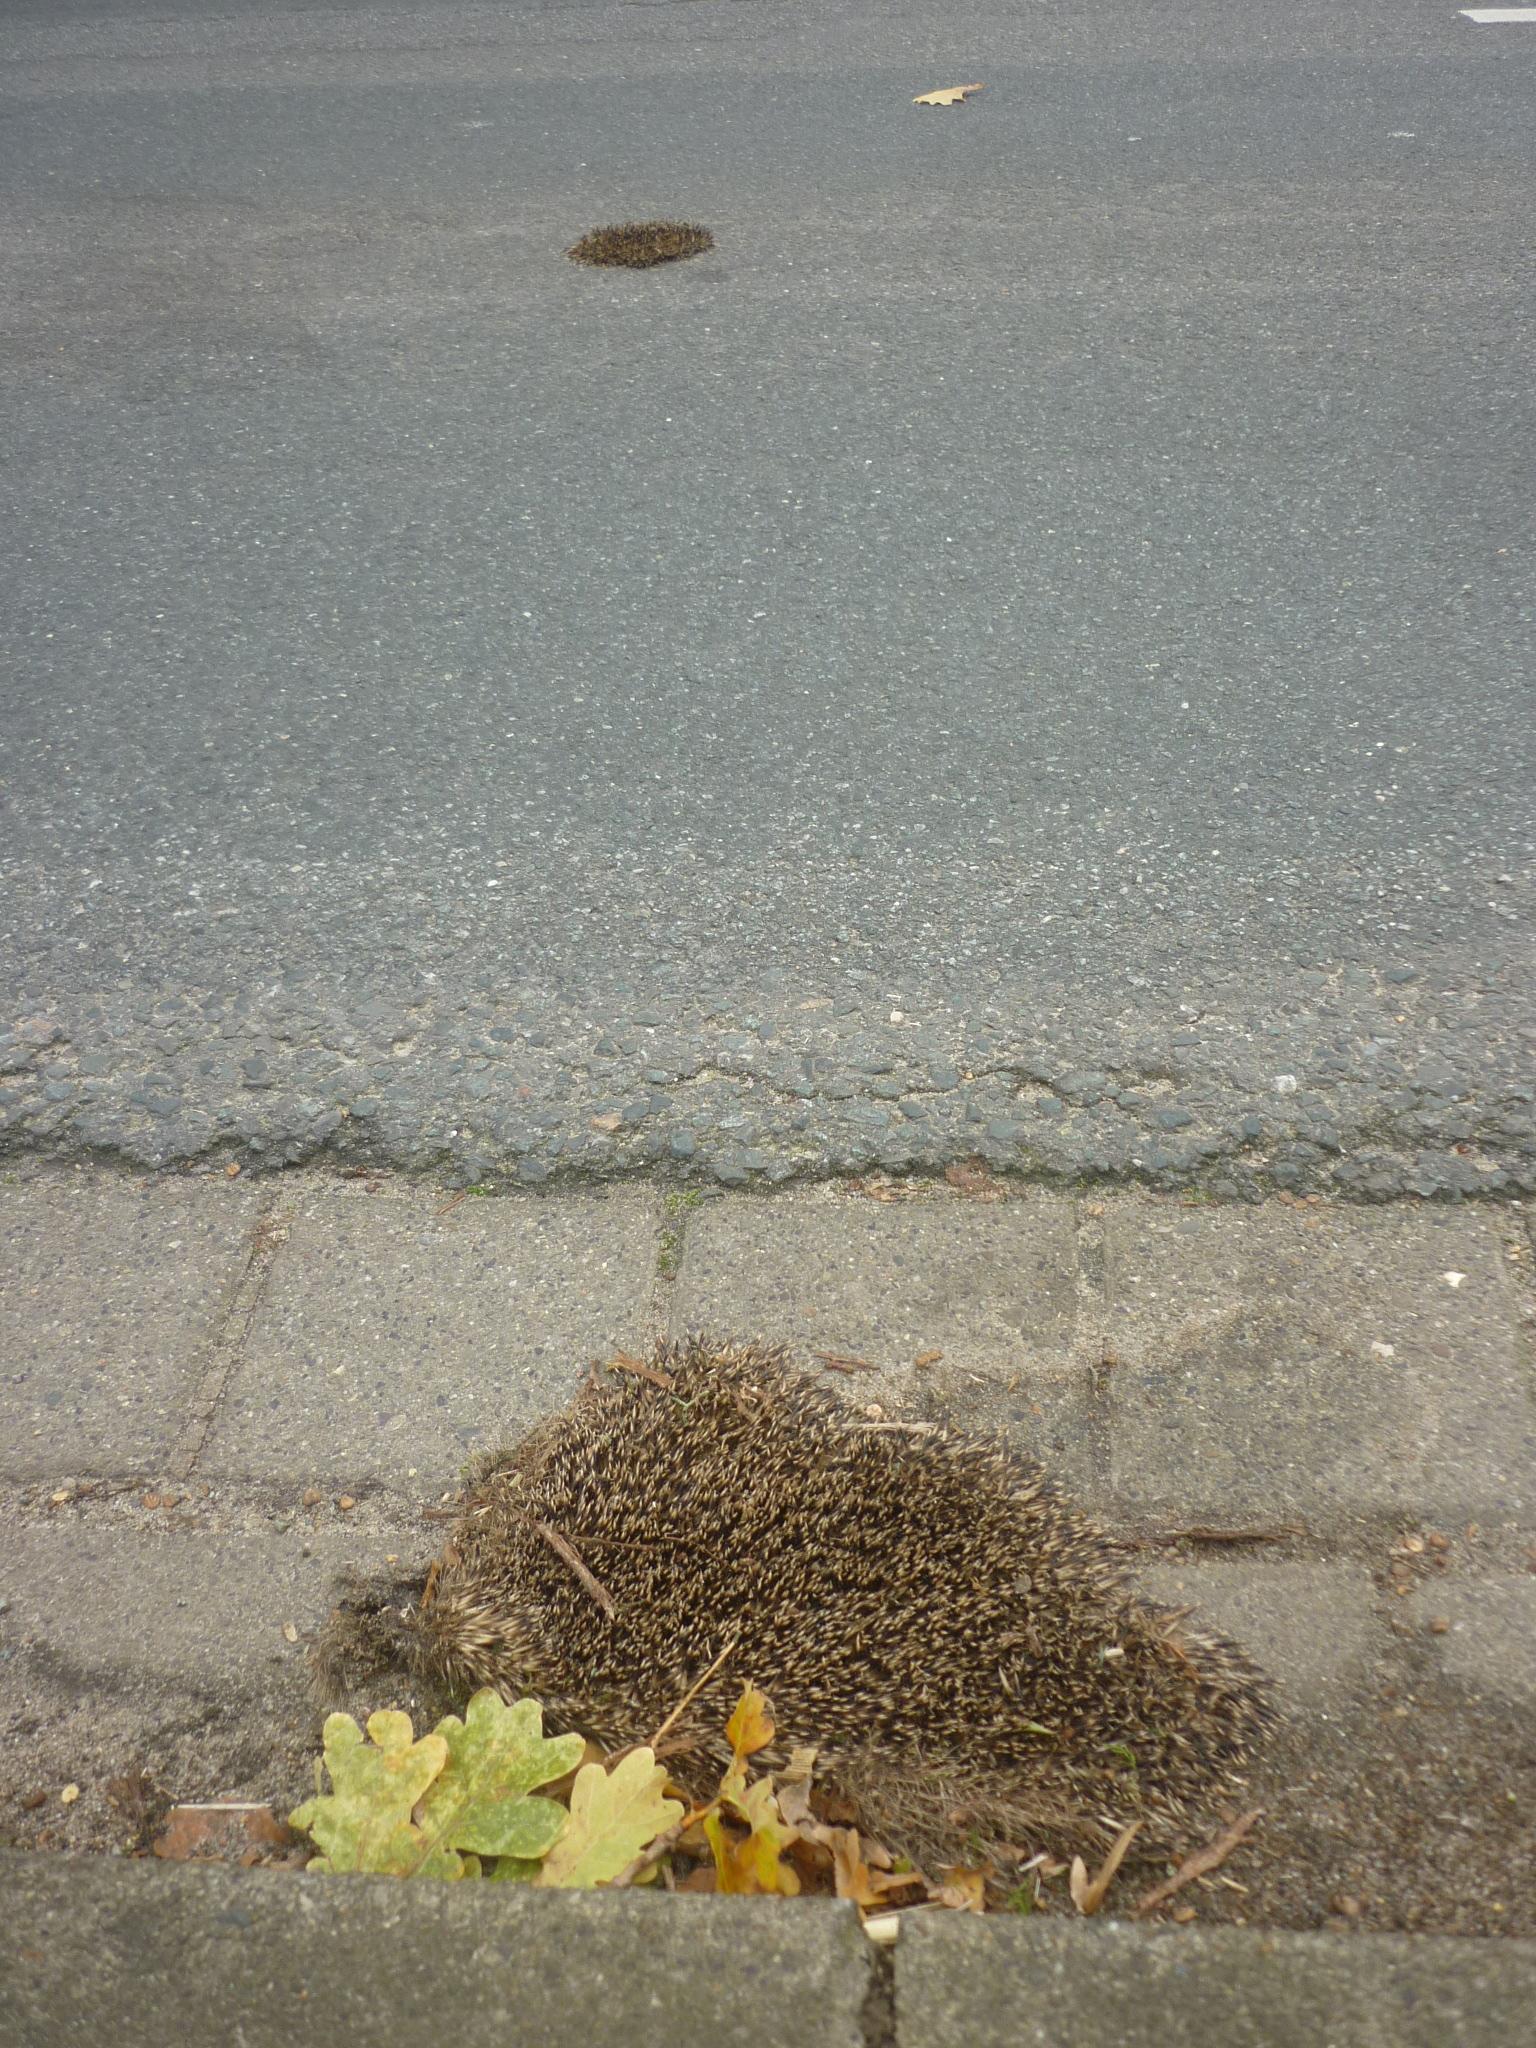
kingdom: Animalia
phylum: Chordata
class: Mammalia
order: Erinaceomorpha
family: Erinaceidae
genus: Erinaceus
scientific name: Erinaceus
